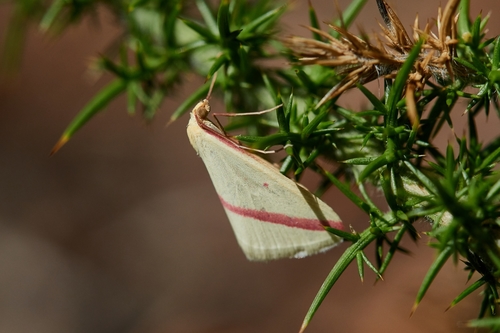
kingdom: Animalia
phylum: Arthropoda
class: Insecta
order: Lepidoptera
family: Geometridae
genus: Rhodometra
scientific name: Rhodometra sacraria
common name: Vestal
